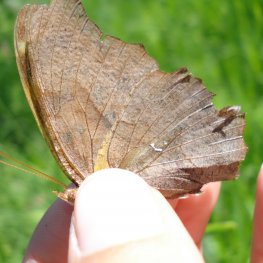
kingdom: Animalia
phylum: Arthropoda
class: Insecta
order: Lepidoptera
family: Nymphalidae
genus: Polygonia
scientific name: Polygonia interrogationis
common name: Question Mark
